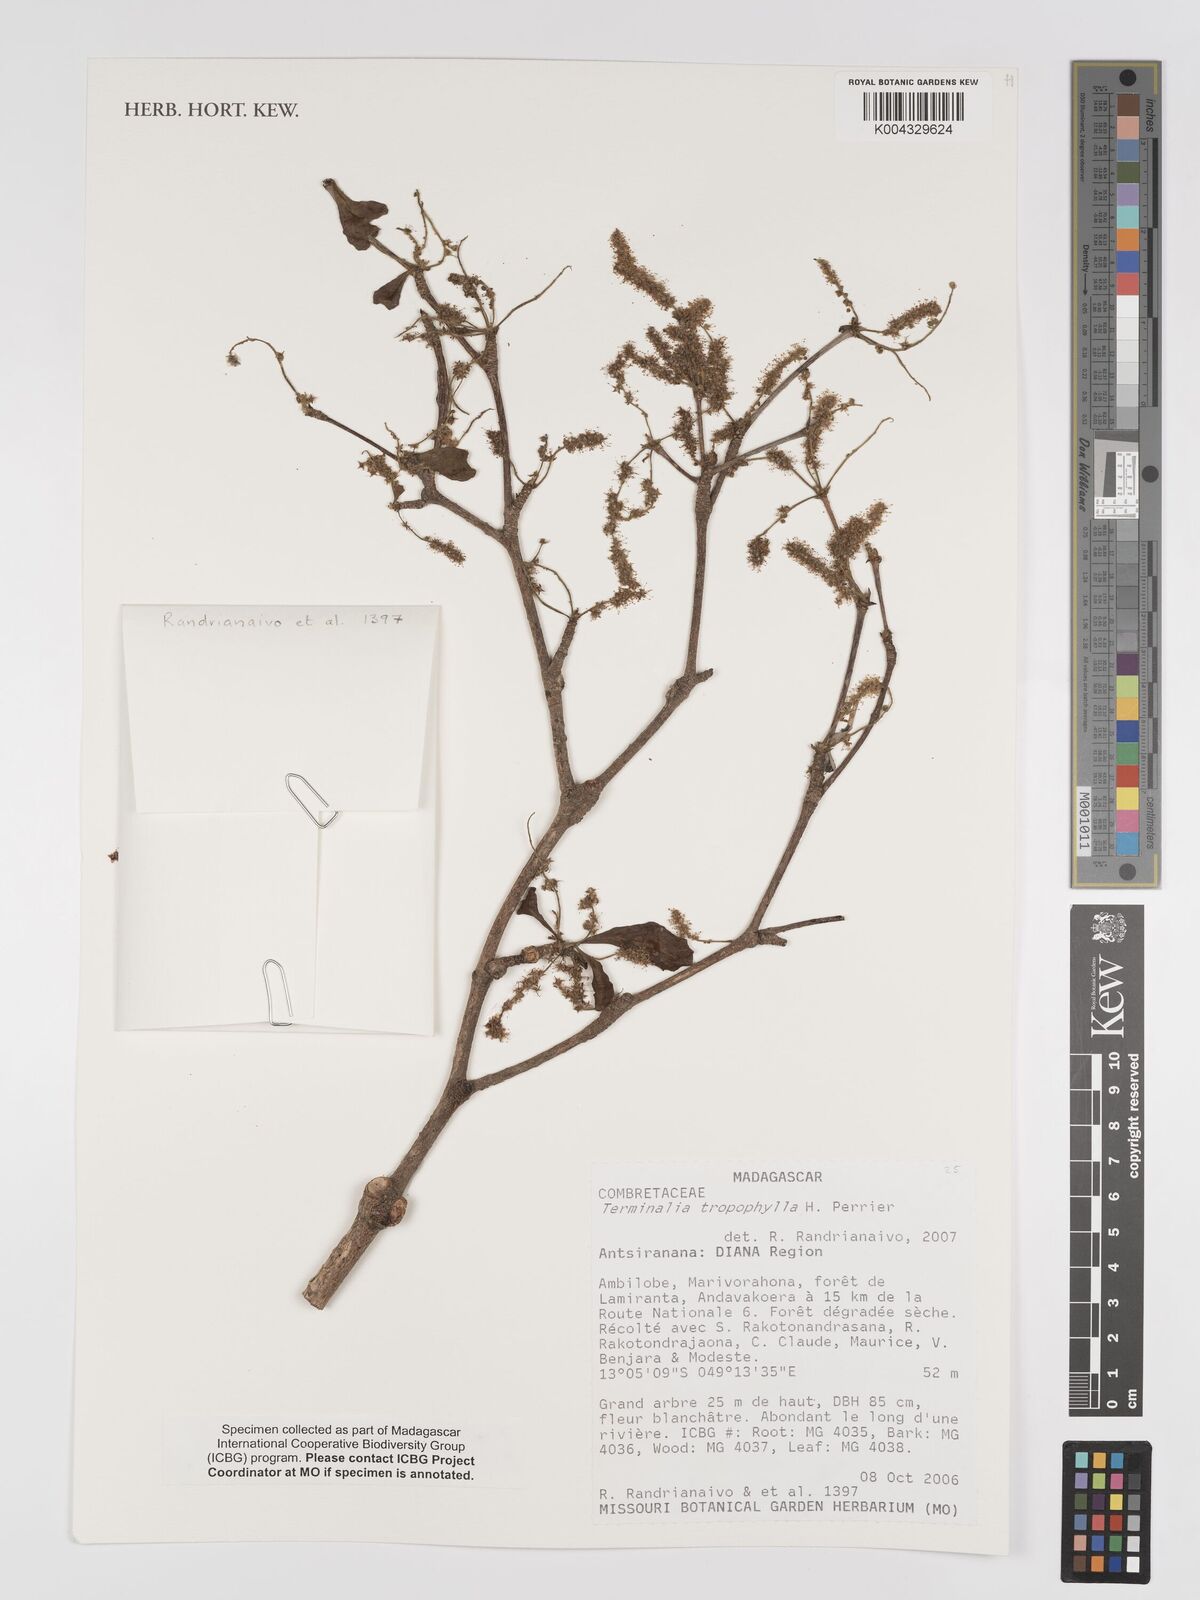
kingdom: Plantae
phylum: Tracheophyta
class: Magnoliopsida
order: Myrtales
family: Combretaceae
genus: Terminalia
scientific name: Terminalia tropophylla
